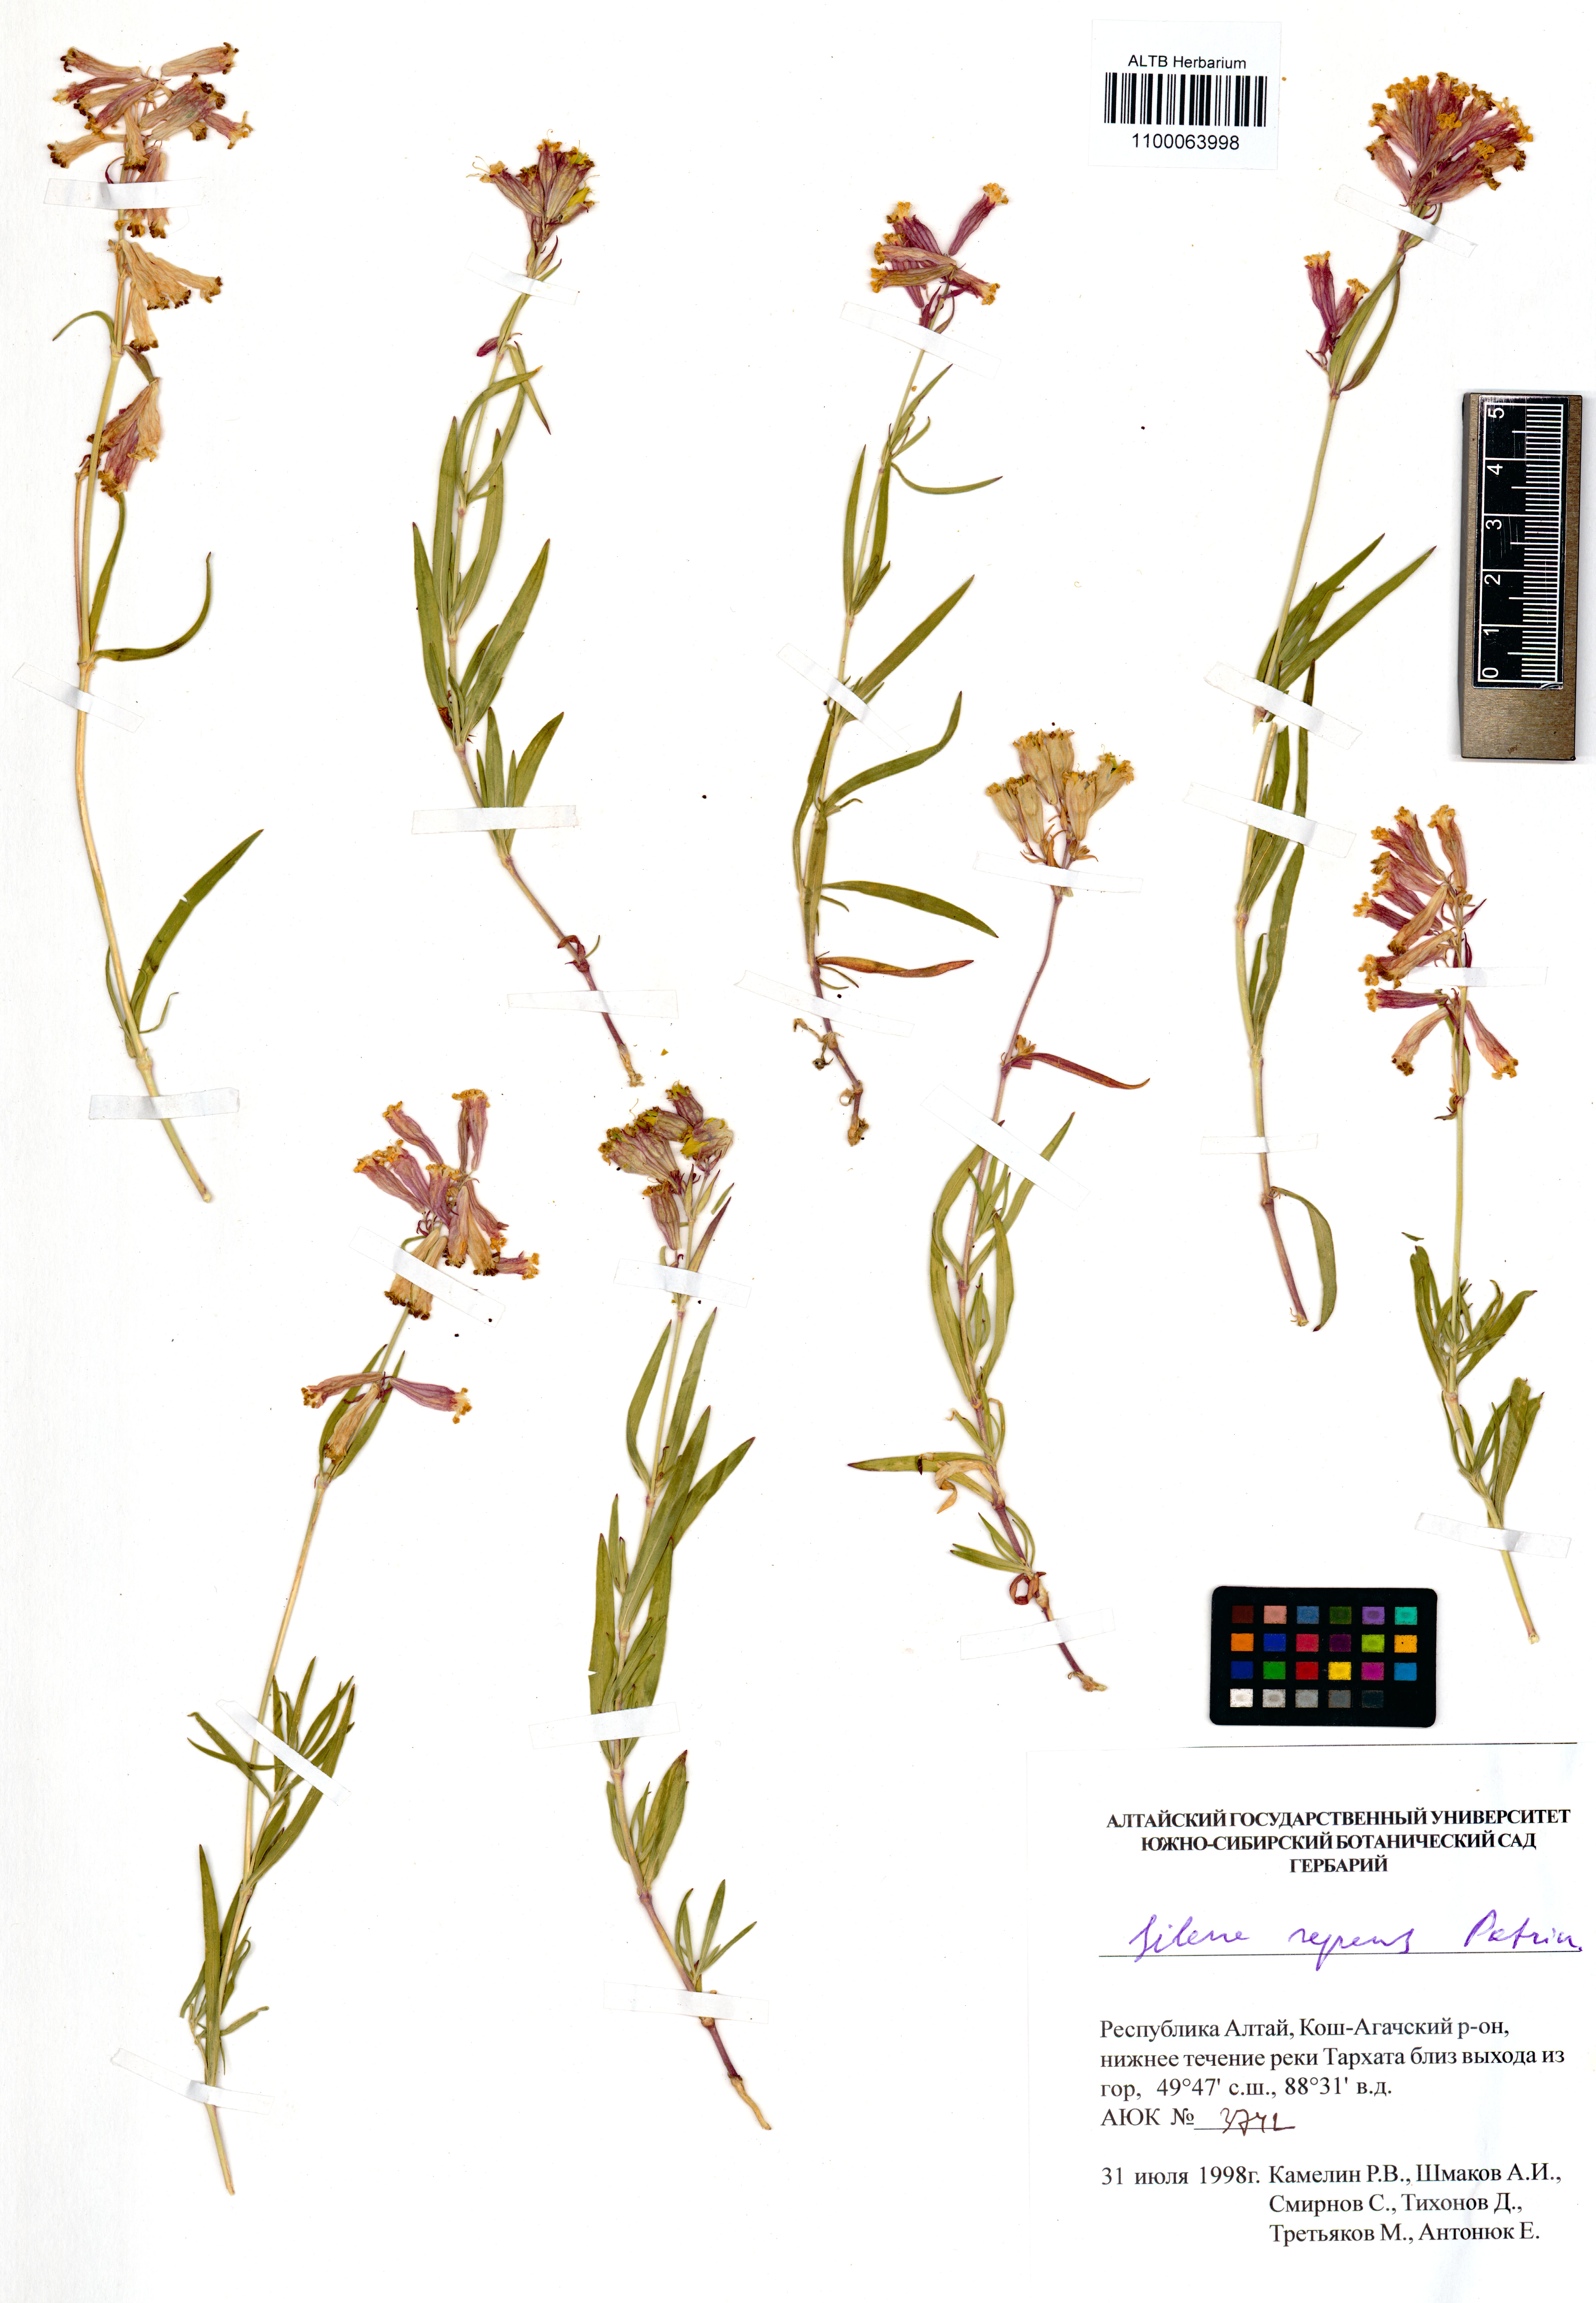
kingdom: Plantae
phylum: Tracheophyta
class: Magnoliopsida
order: Caryophyllales
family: Caryophyllaceae
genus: Silene
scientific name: Silene repens
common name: Pink campion
